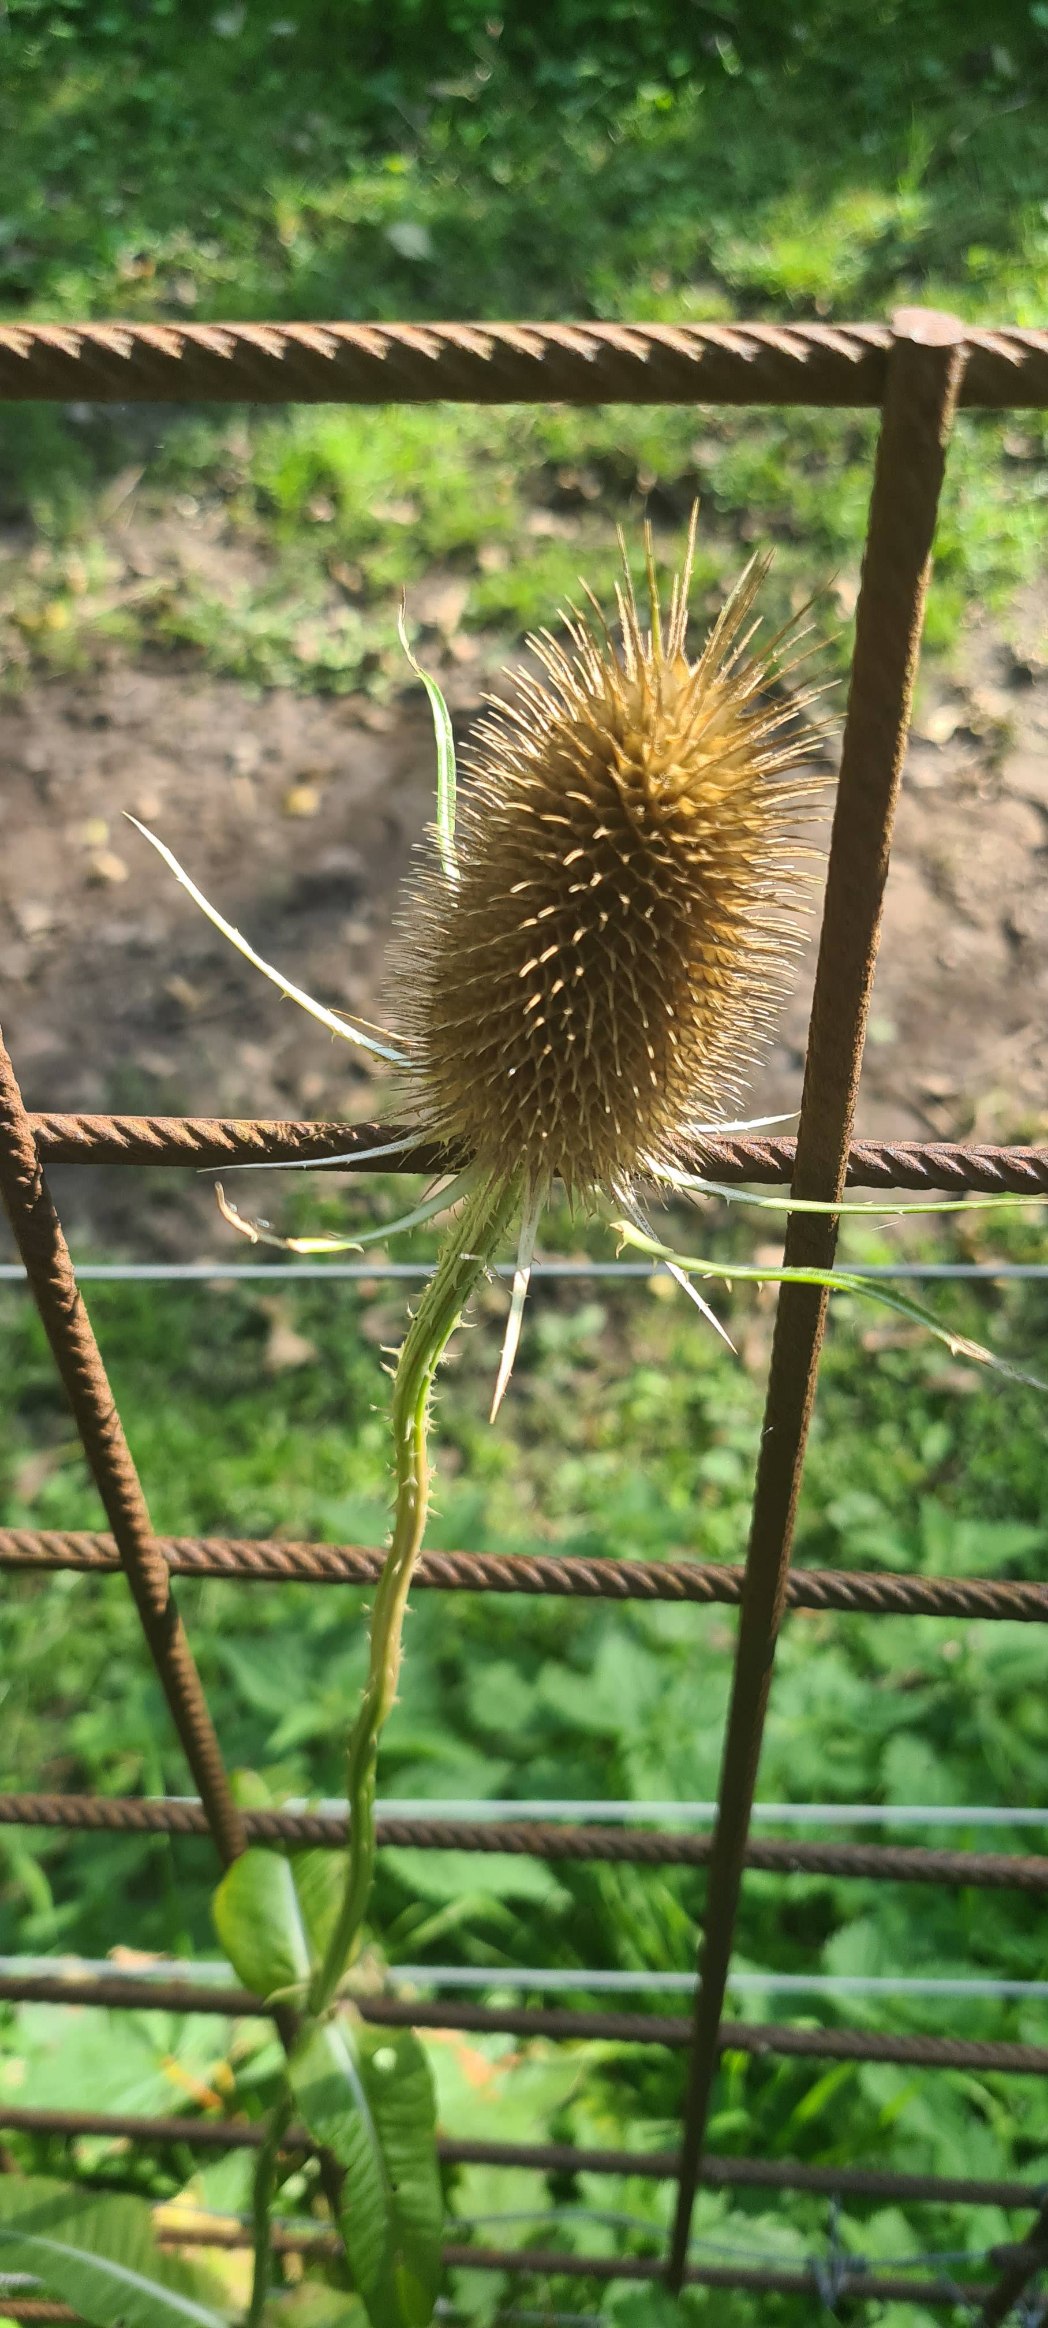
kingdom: Plantae
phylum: Tracheophyta
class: Magnoliopsida
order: Dipsacales
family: Caprifoliaceae
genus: Dipsacus
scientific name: Dipsacus fullonum
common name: Gærde-kartebolle
